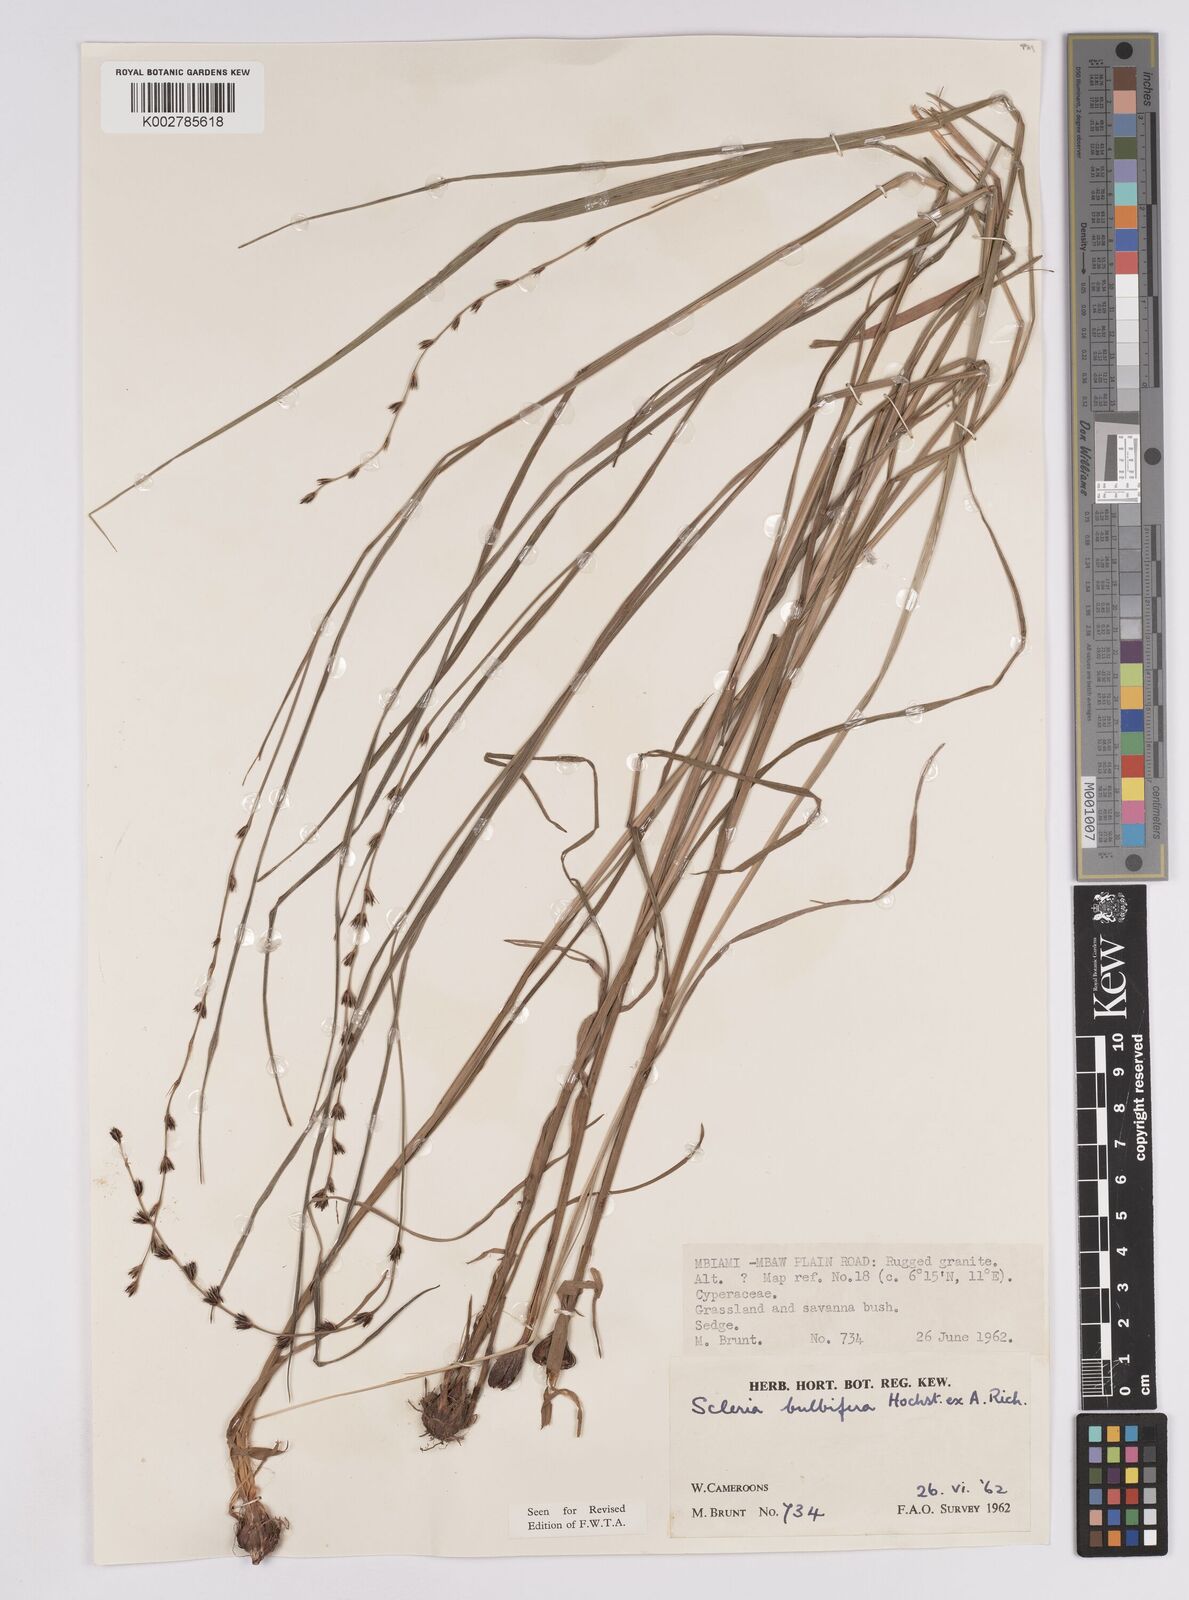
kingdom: Plantae
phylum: Tracheophyta
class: Liliopsida
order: Poales
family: Cyperaceae
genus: Scleria
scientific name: Scleria bulbifera
